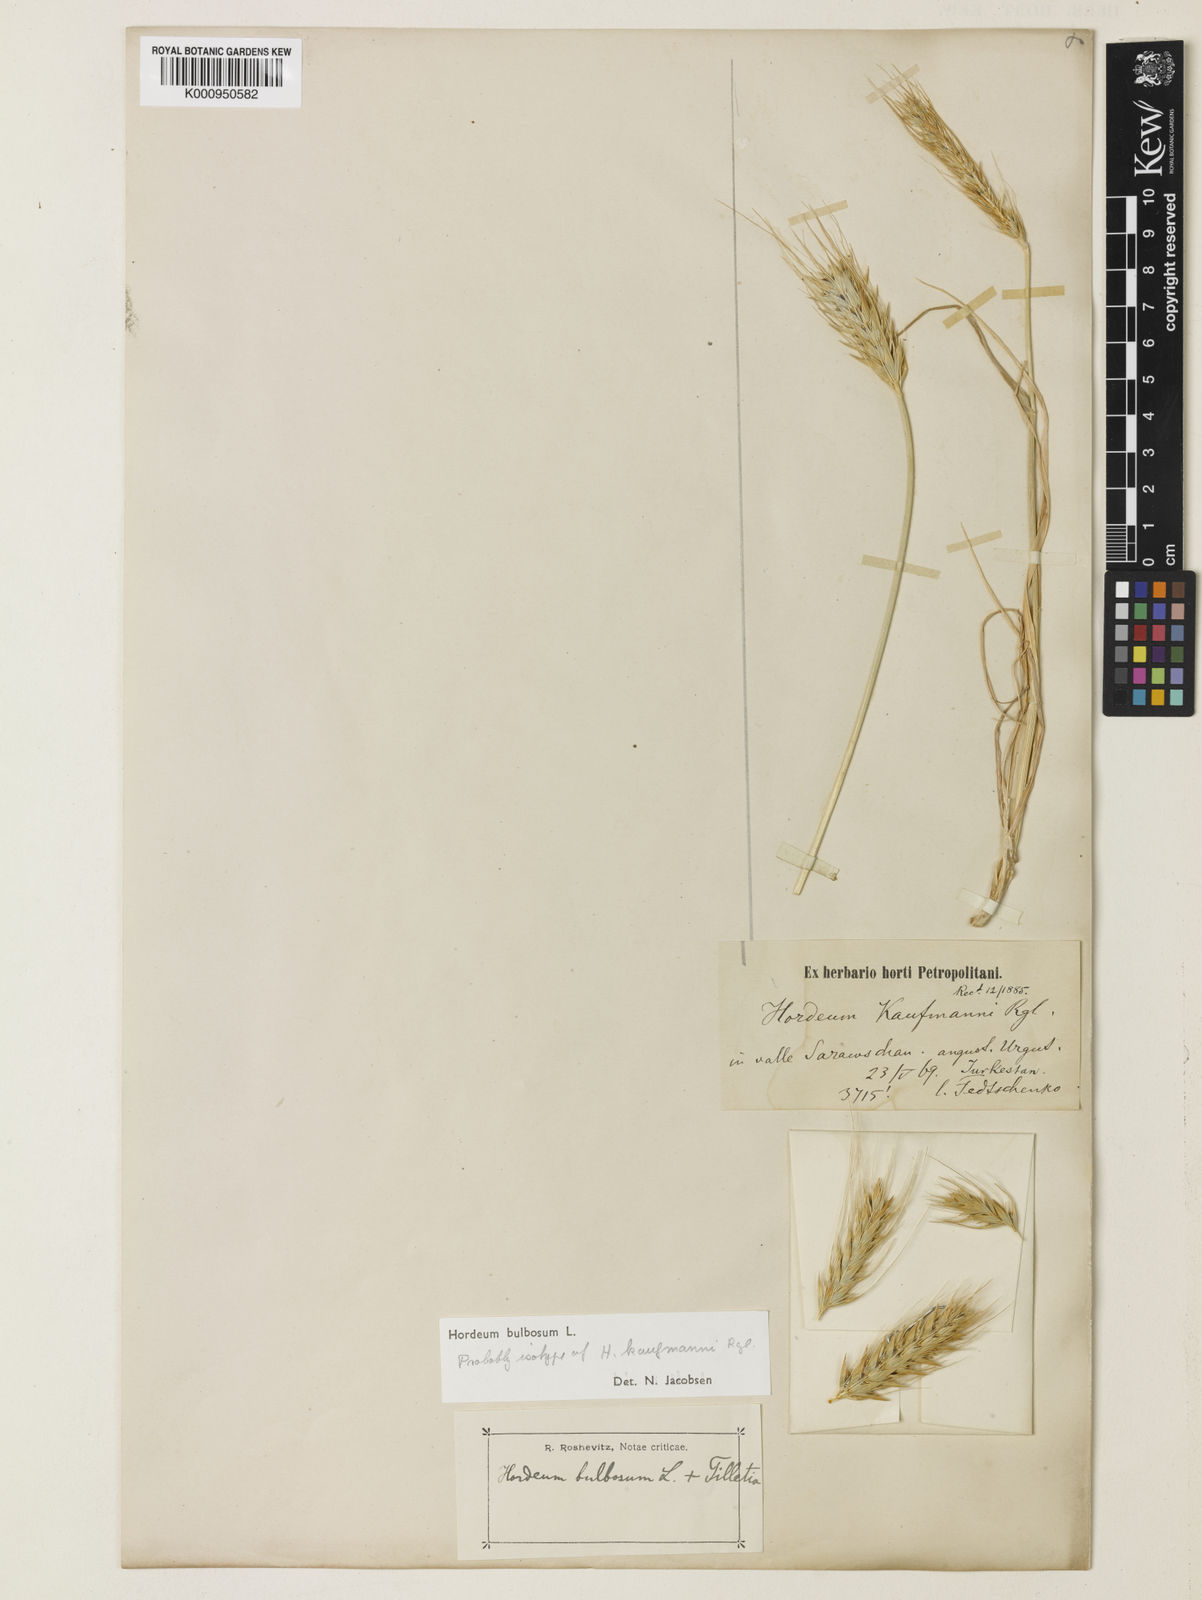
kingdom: Plantae
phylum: Tracheophyta
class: Liliopsida
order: Poales
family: Poaceae
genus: Hordeum
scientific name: Hordeum bulbosum
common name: Bulbous barley
